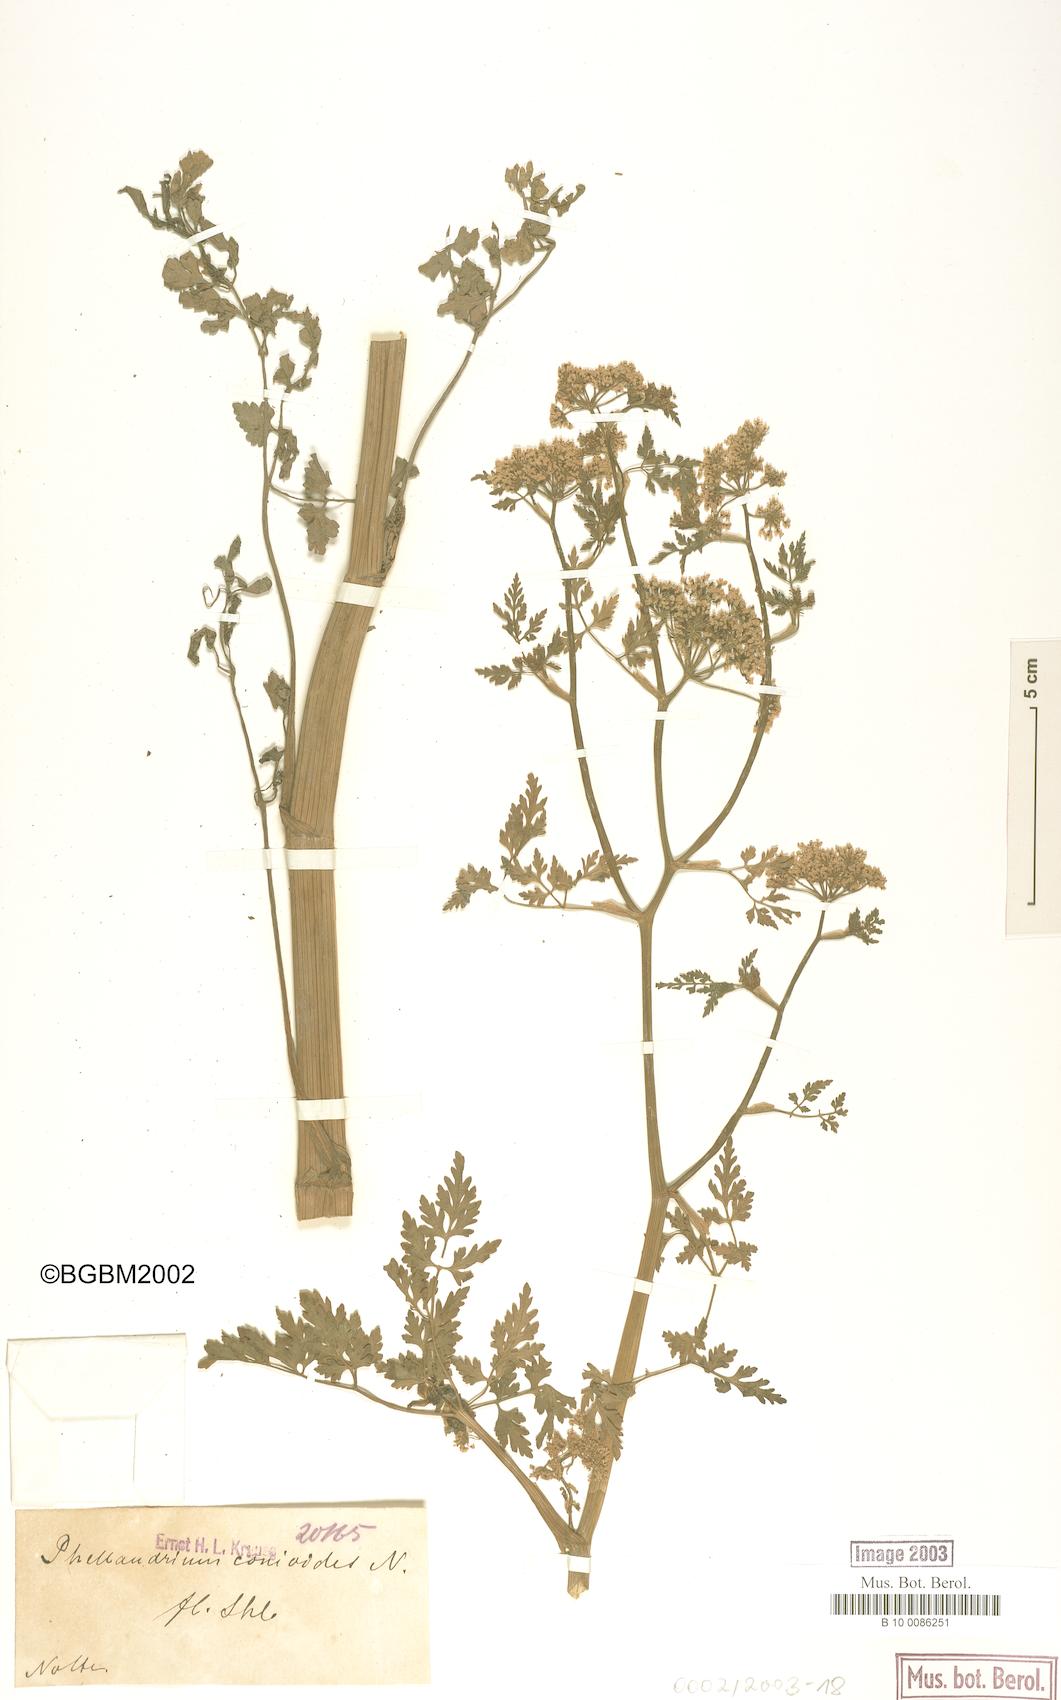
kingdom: Plantae
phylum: Tracheophyta
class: Magnoliopsida
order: Apiales
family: Apiaceae
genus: Oenanthe
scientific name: Oenanthe conioides
